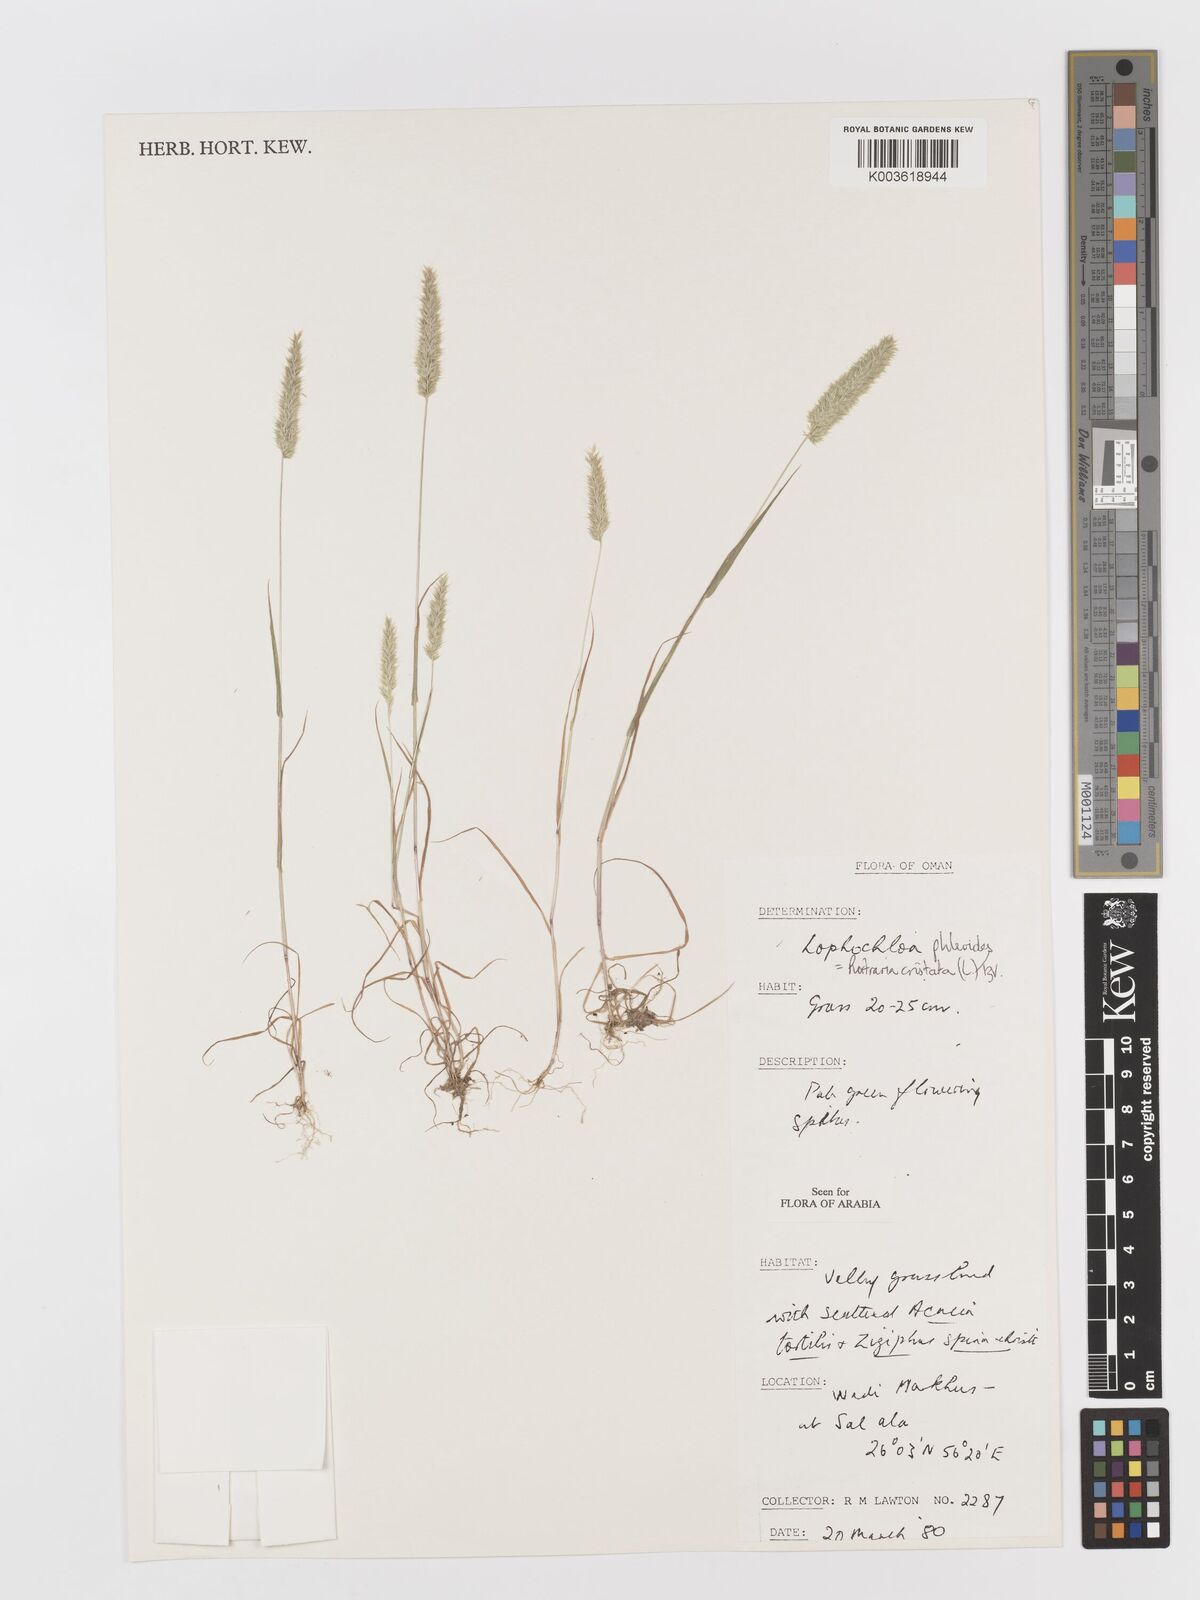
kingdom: Plantae
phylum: Tracheophyta
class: Liliopsida
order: Poales
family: Poaceae
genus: Rostraria
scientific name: Rostraria cristata
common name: Mediterranean hair-grass
